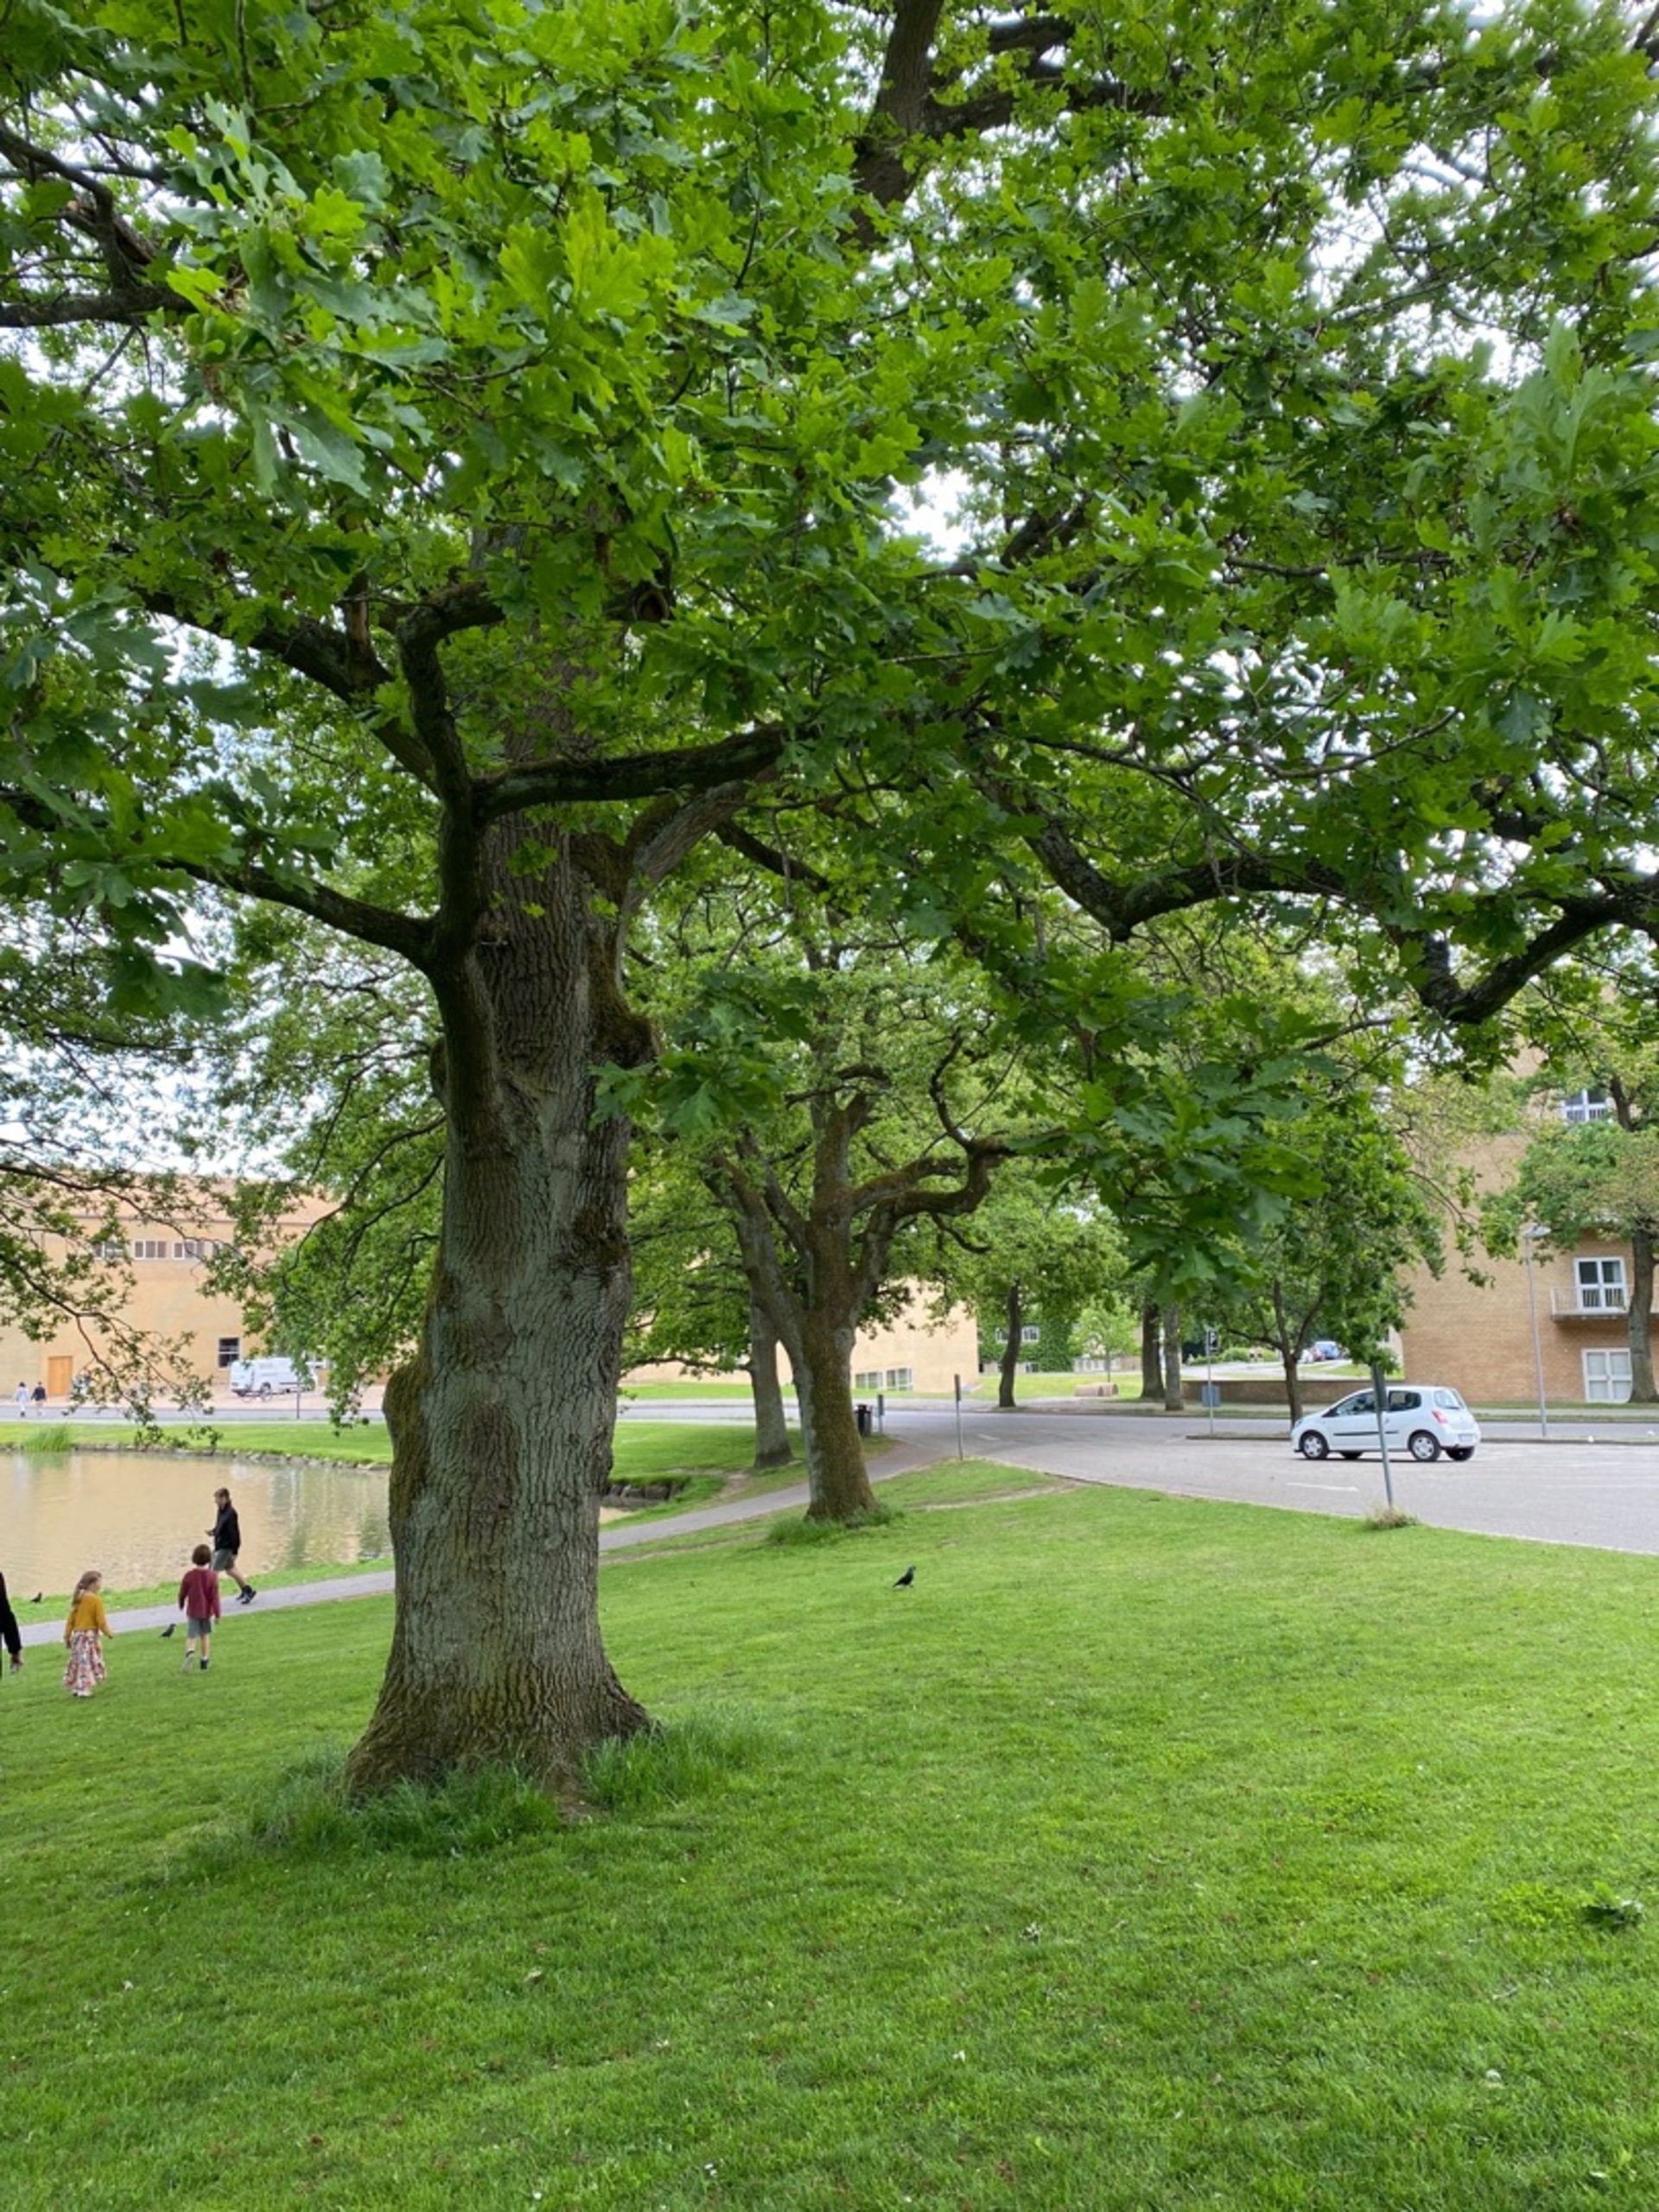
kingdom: Plantae
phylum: Tracheophyta
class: Magnoliopsida
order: Fagales
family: Fagaceae
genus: Quercus
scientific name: Quercus robur
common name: Stilk-eg/almindelig eg
